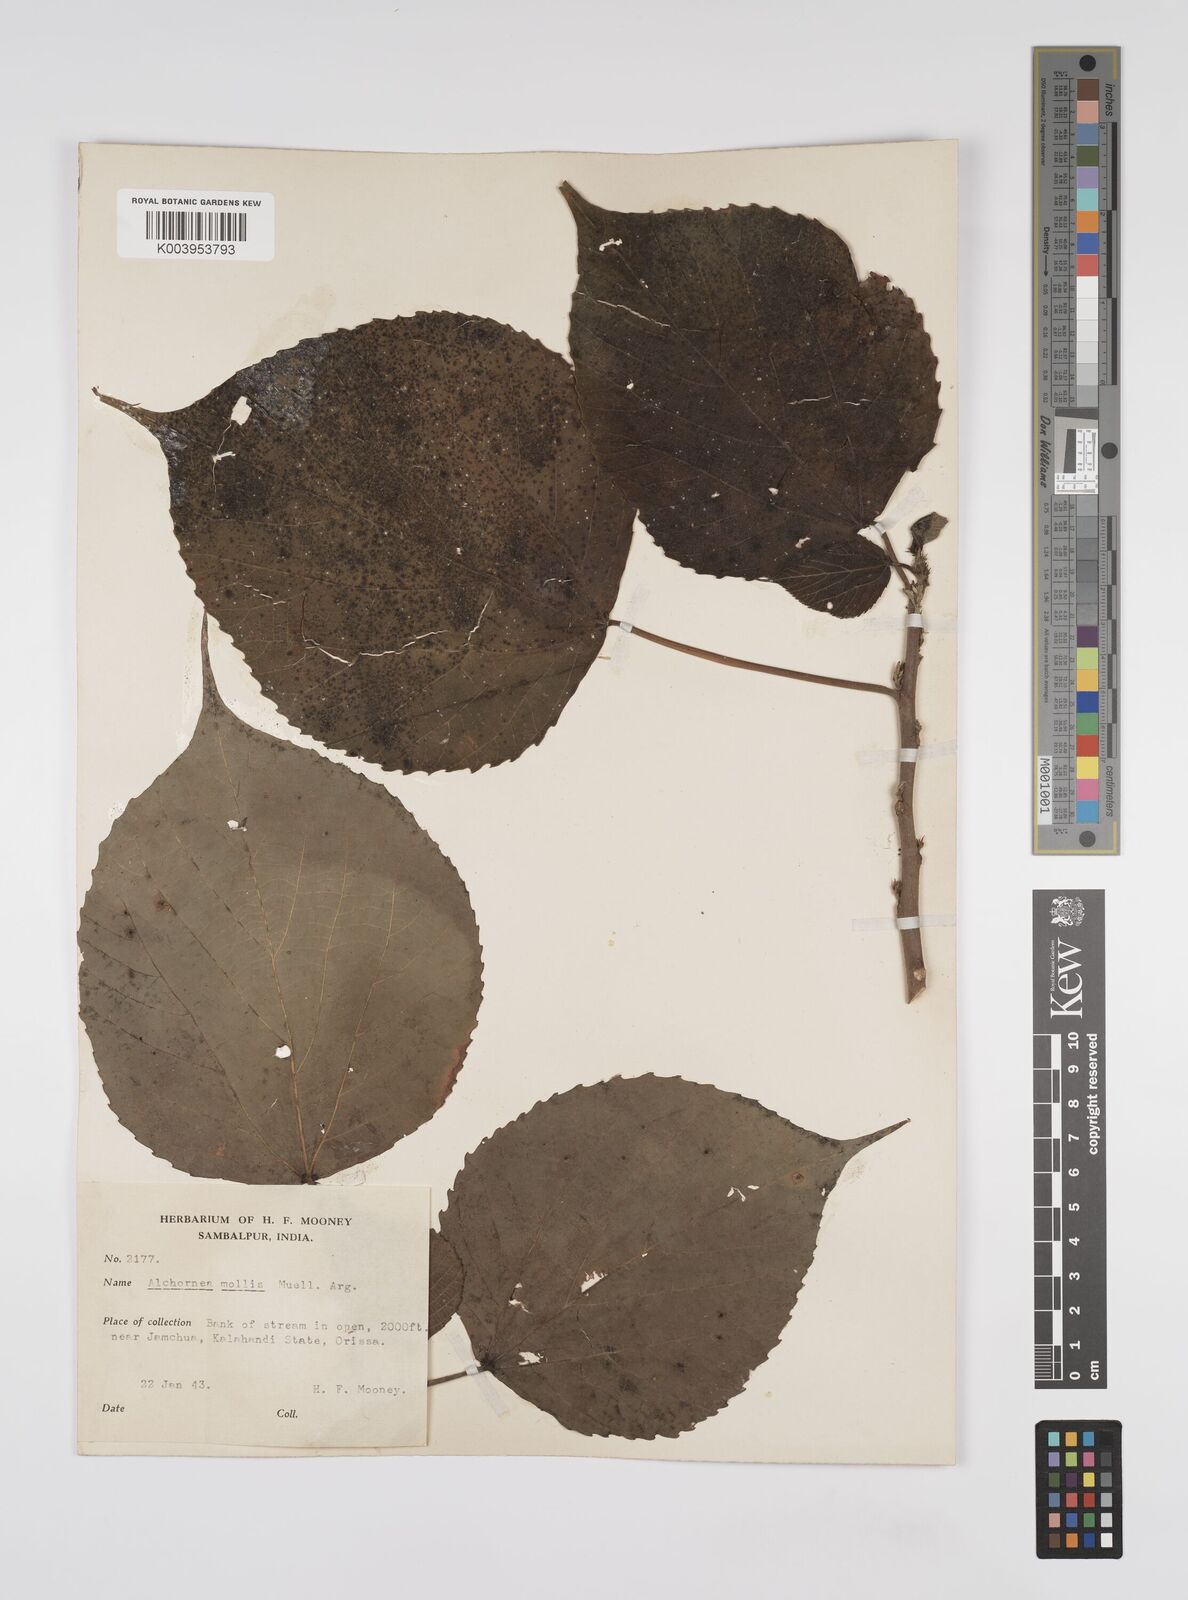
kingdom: Plantae
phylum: Tracheophyta
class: Magnoliopsida
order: Malpighiales
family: Euphorbiaceae
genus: Alchornea
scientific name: Alchornea mollis
